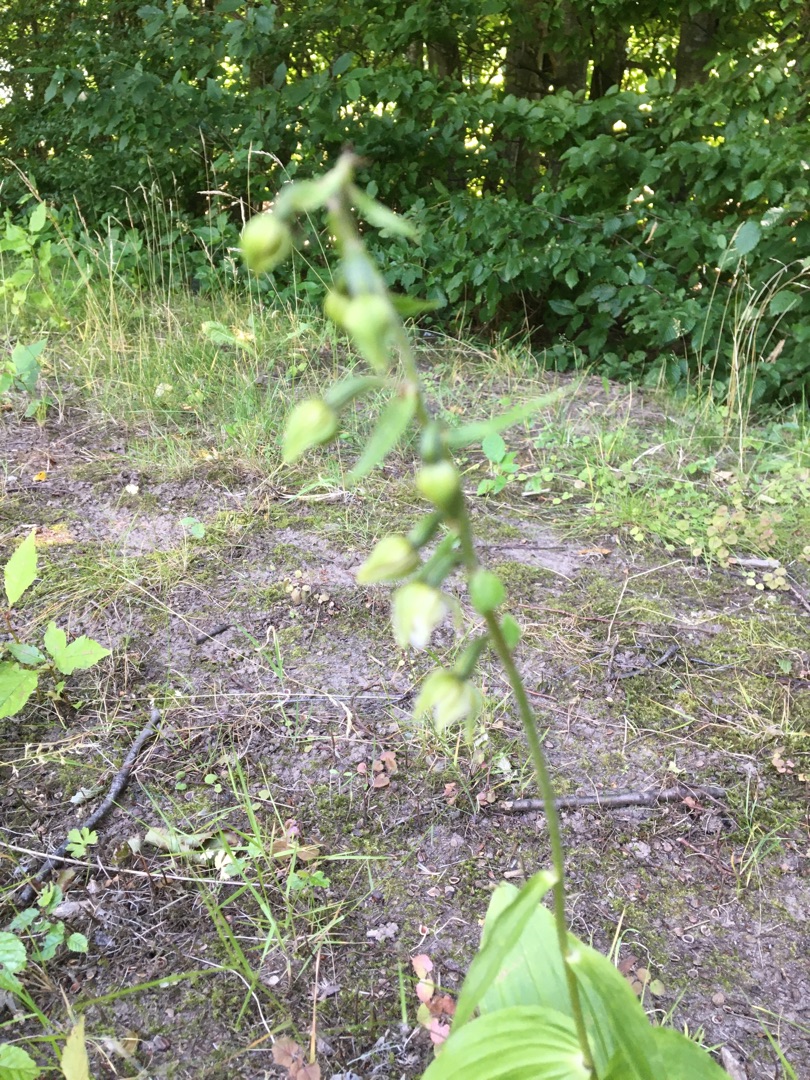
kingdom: Plantae
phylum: Tracheophyta
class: Liliopsida
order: Asparagales
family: Orchidaceae
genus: Epipactis
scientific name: Epipactis helleborine
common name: Skov-hullæbe
